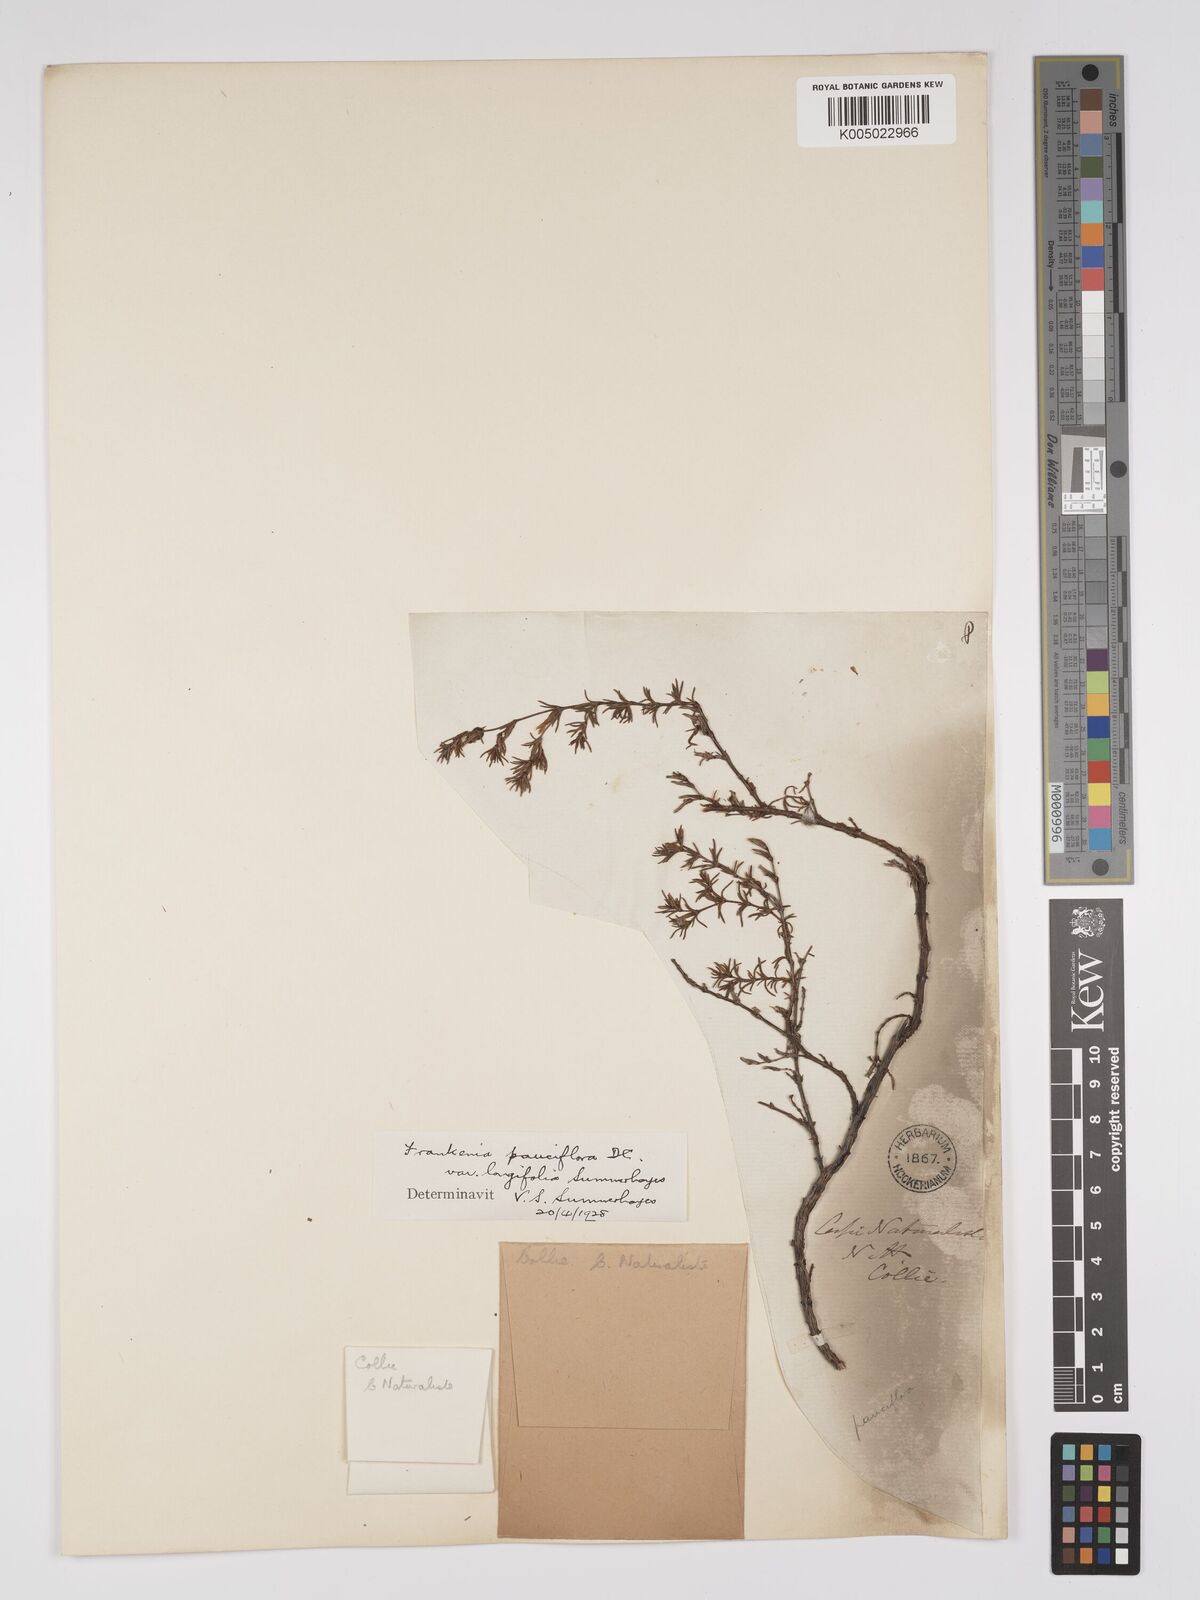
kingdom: Plantae
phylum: Tracheophyta
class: Magnoliopsida
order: Caryophyllales
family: Frankeniaceae
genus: Frankenia
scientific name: Frankenia pauciflora
